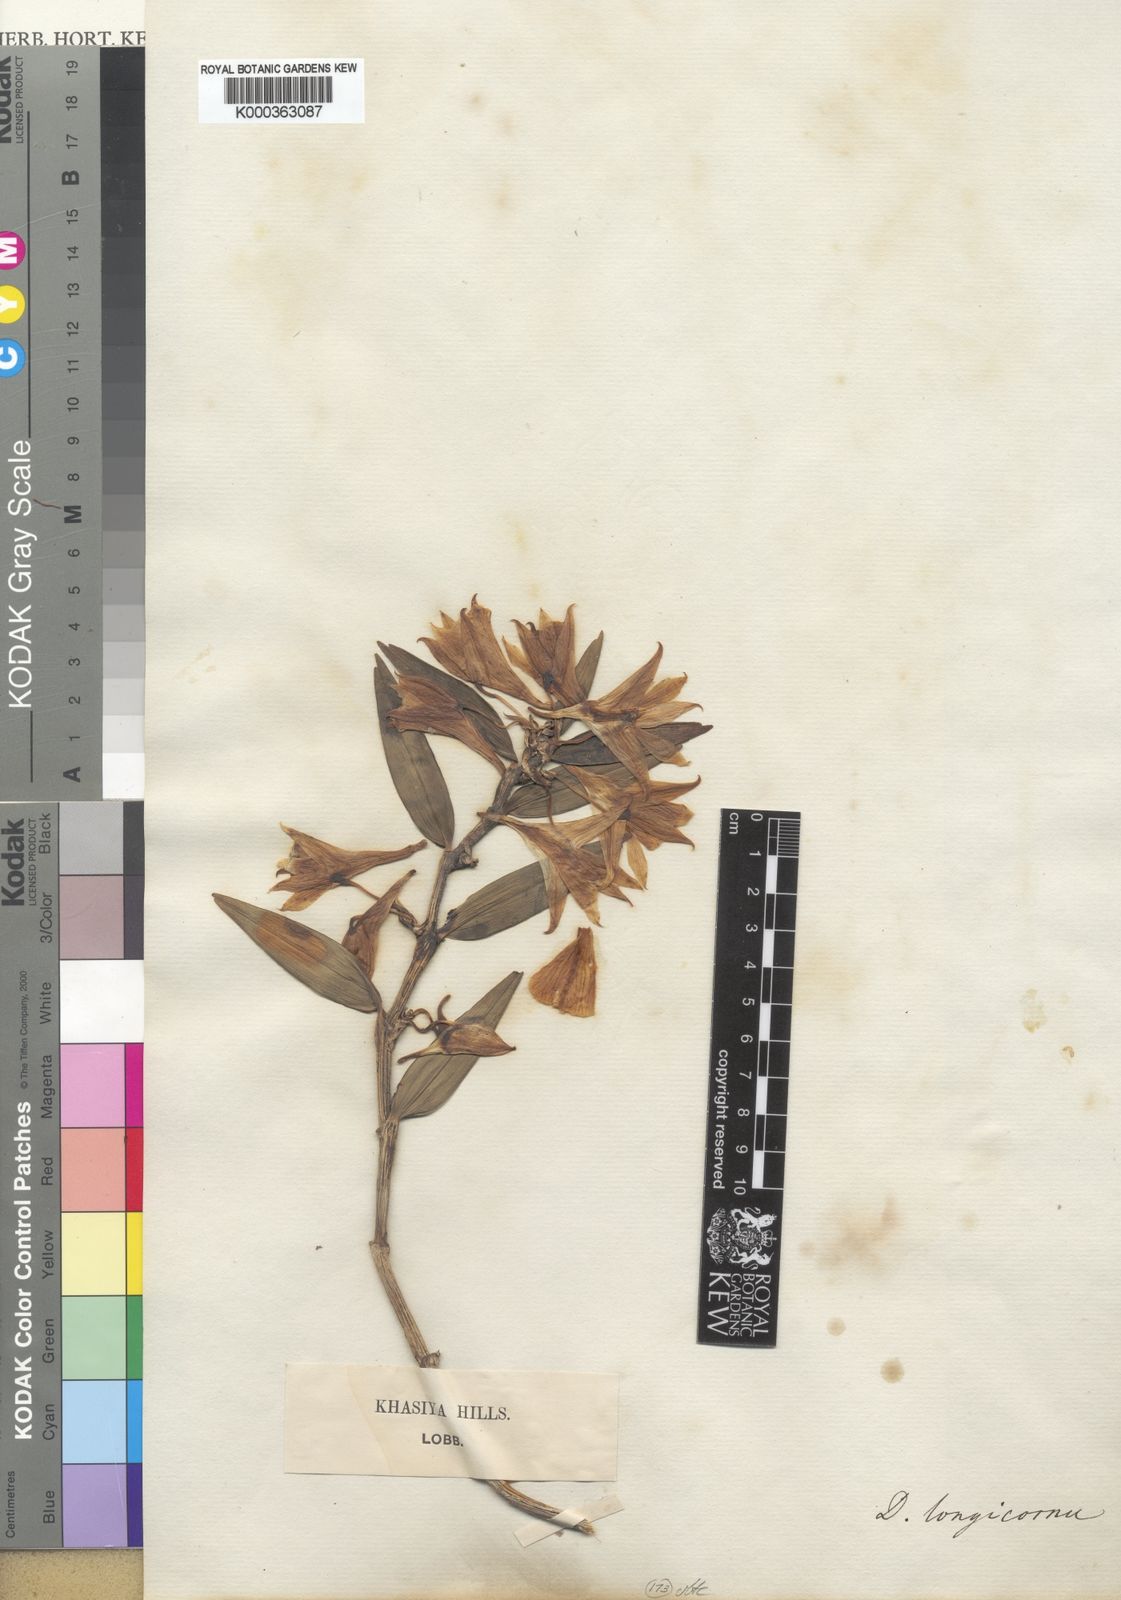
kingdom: Plantae
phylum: Tracheophyta
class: Liliopsida
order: Asparagales
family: Orchidaceae
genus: Dendrobium
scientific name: Dendrobium longicornu
